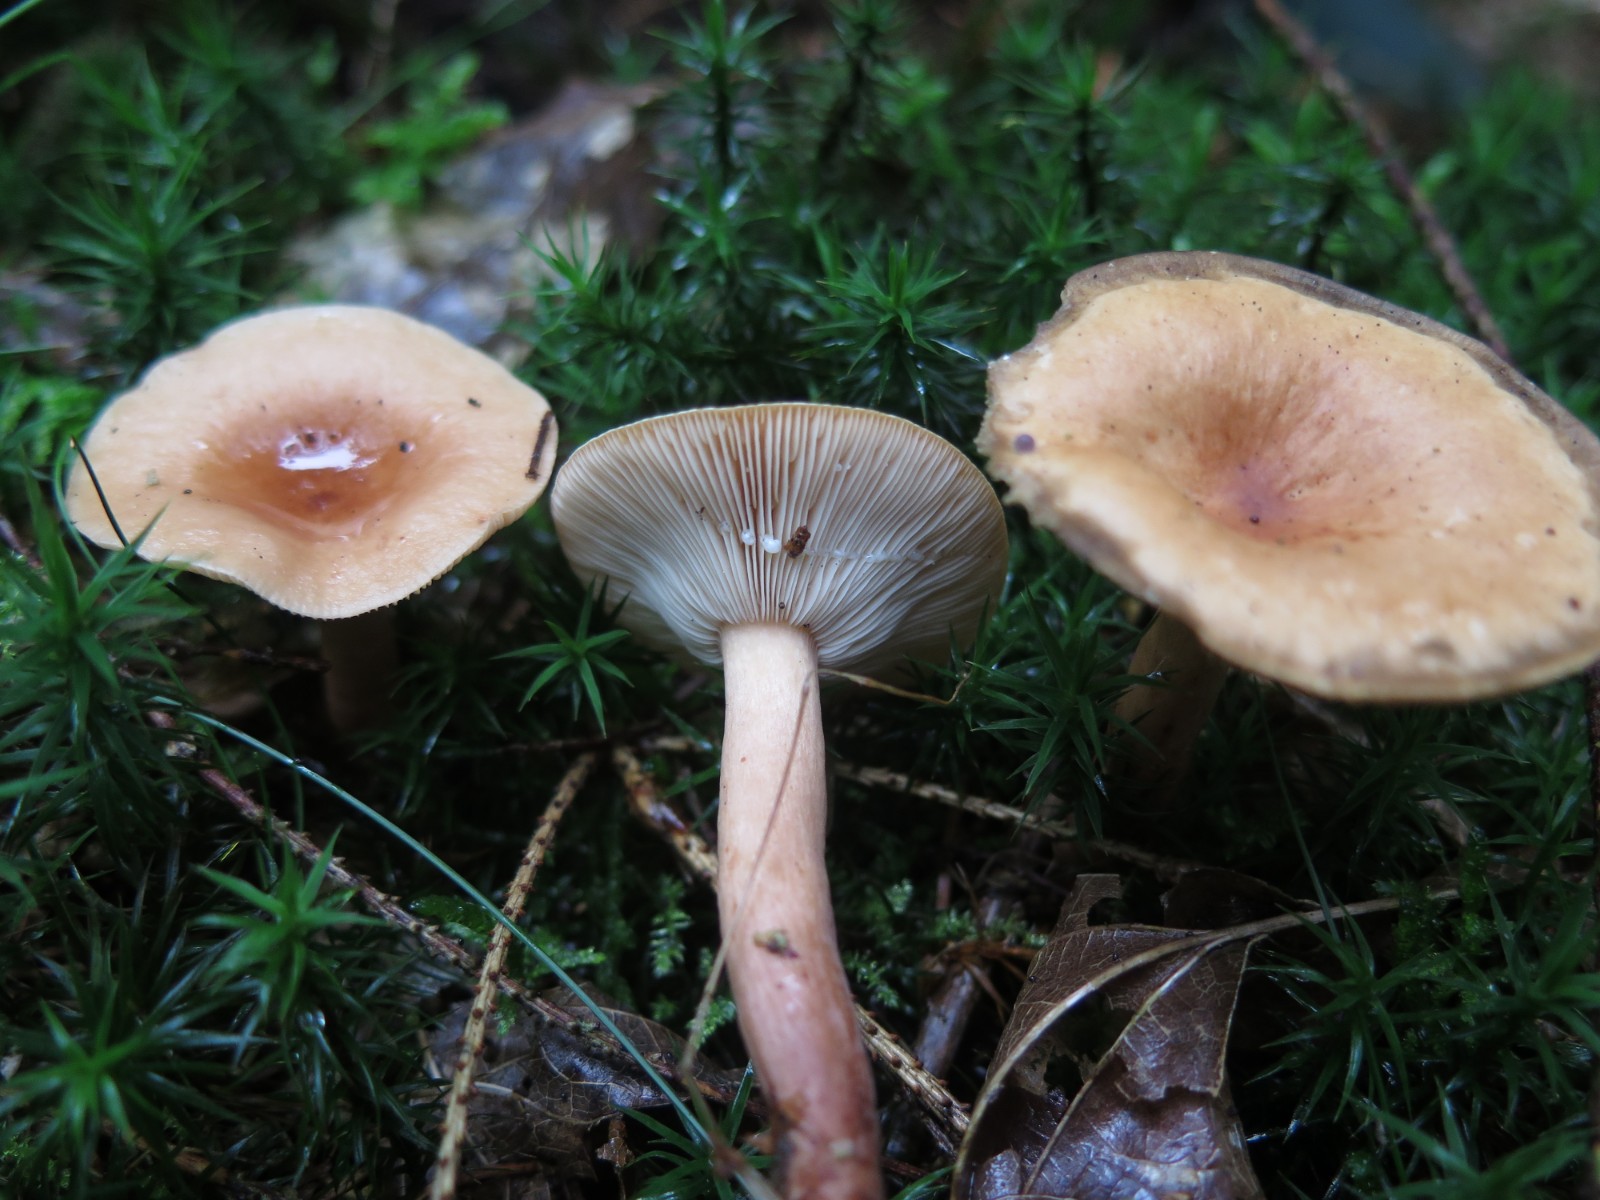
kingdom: Fungi
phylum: Basidiomycota
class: Agaricomycetes
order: Russulales
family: Russulaceae
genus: Lactarius
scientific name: Lactarius tabidus
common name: rynket mælkehat
